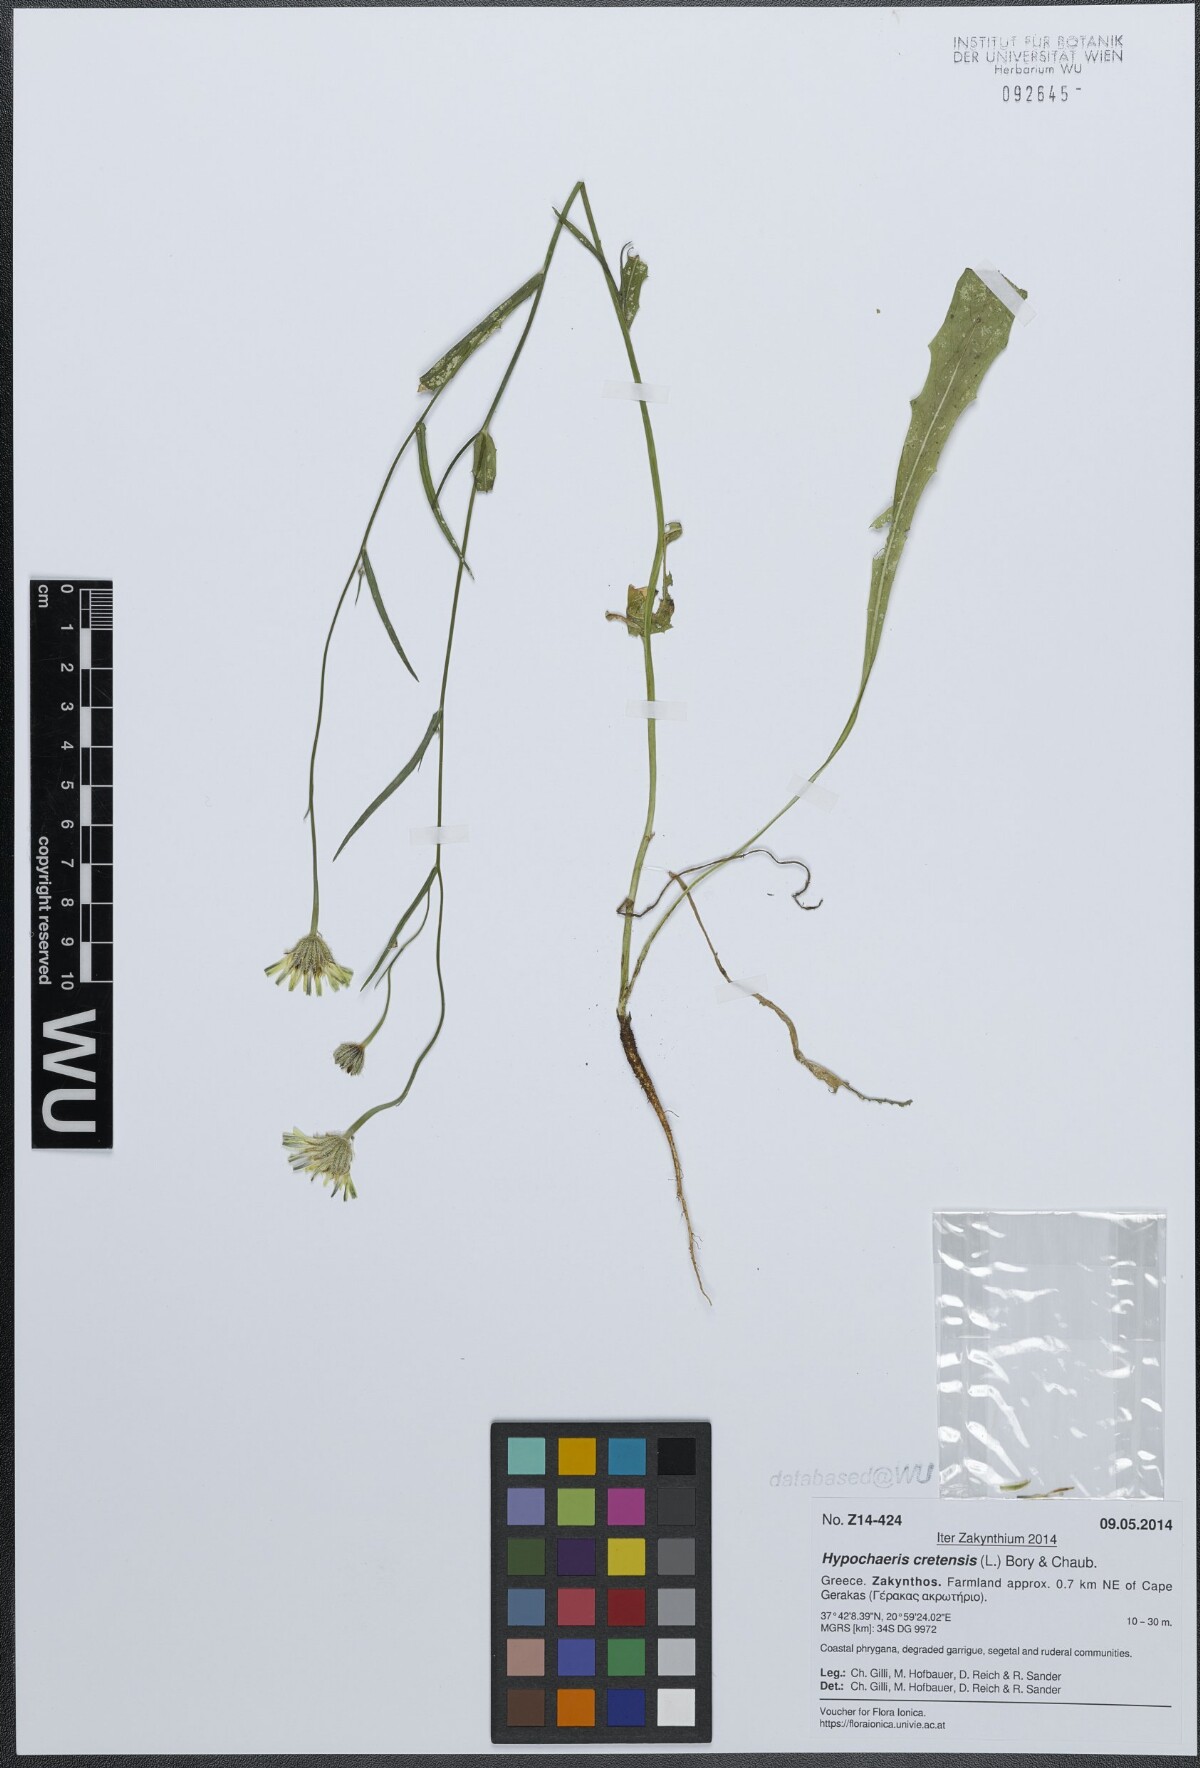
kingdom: Plantae
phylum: Tracheophyta
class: Magnoliopsida
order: Asterales
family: Asteraceae
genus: Hypochaeris
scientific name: Hypochaeris cretensis
